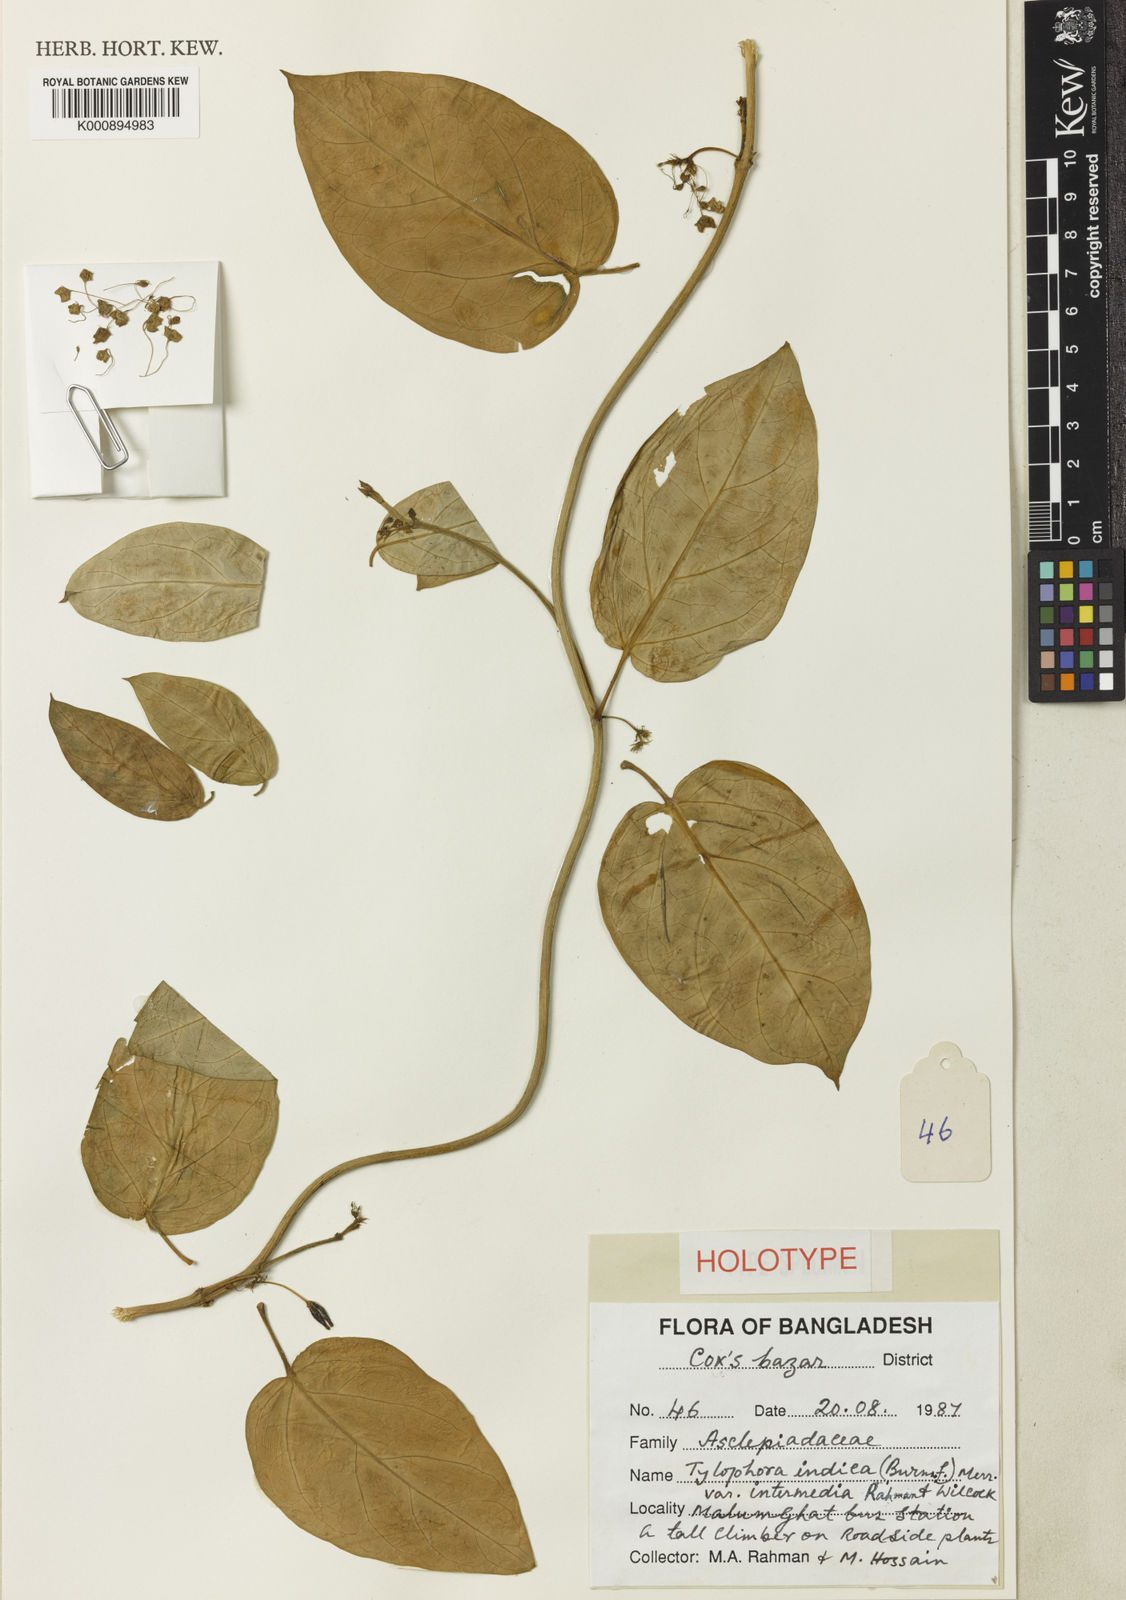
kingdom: Plantae
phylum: Tracheophyta
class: Magnoliopsida
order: Gentianales
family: Apocynaceae
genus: Vincetoxicum
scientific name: Vincetoxicum indicum
